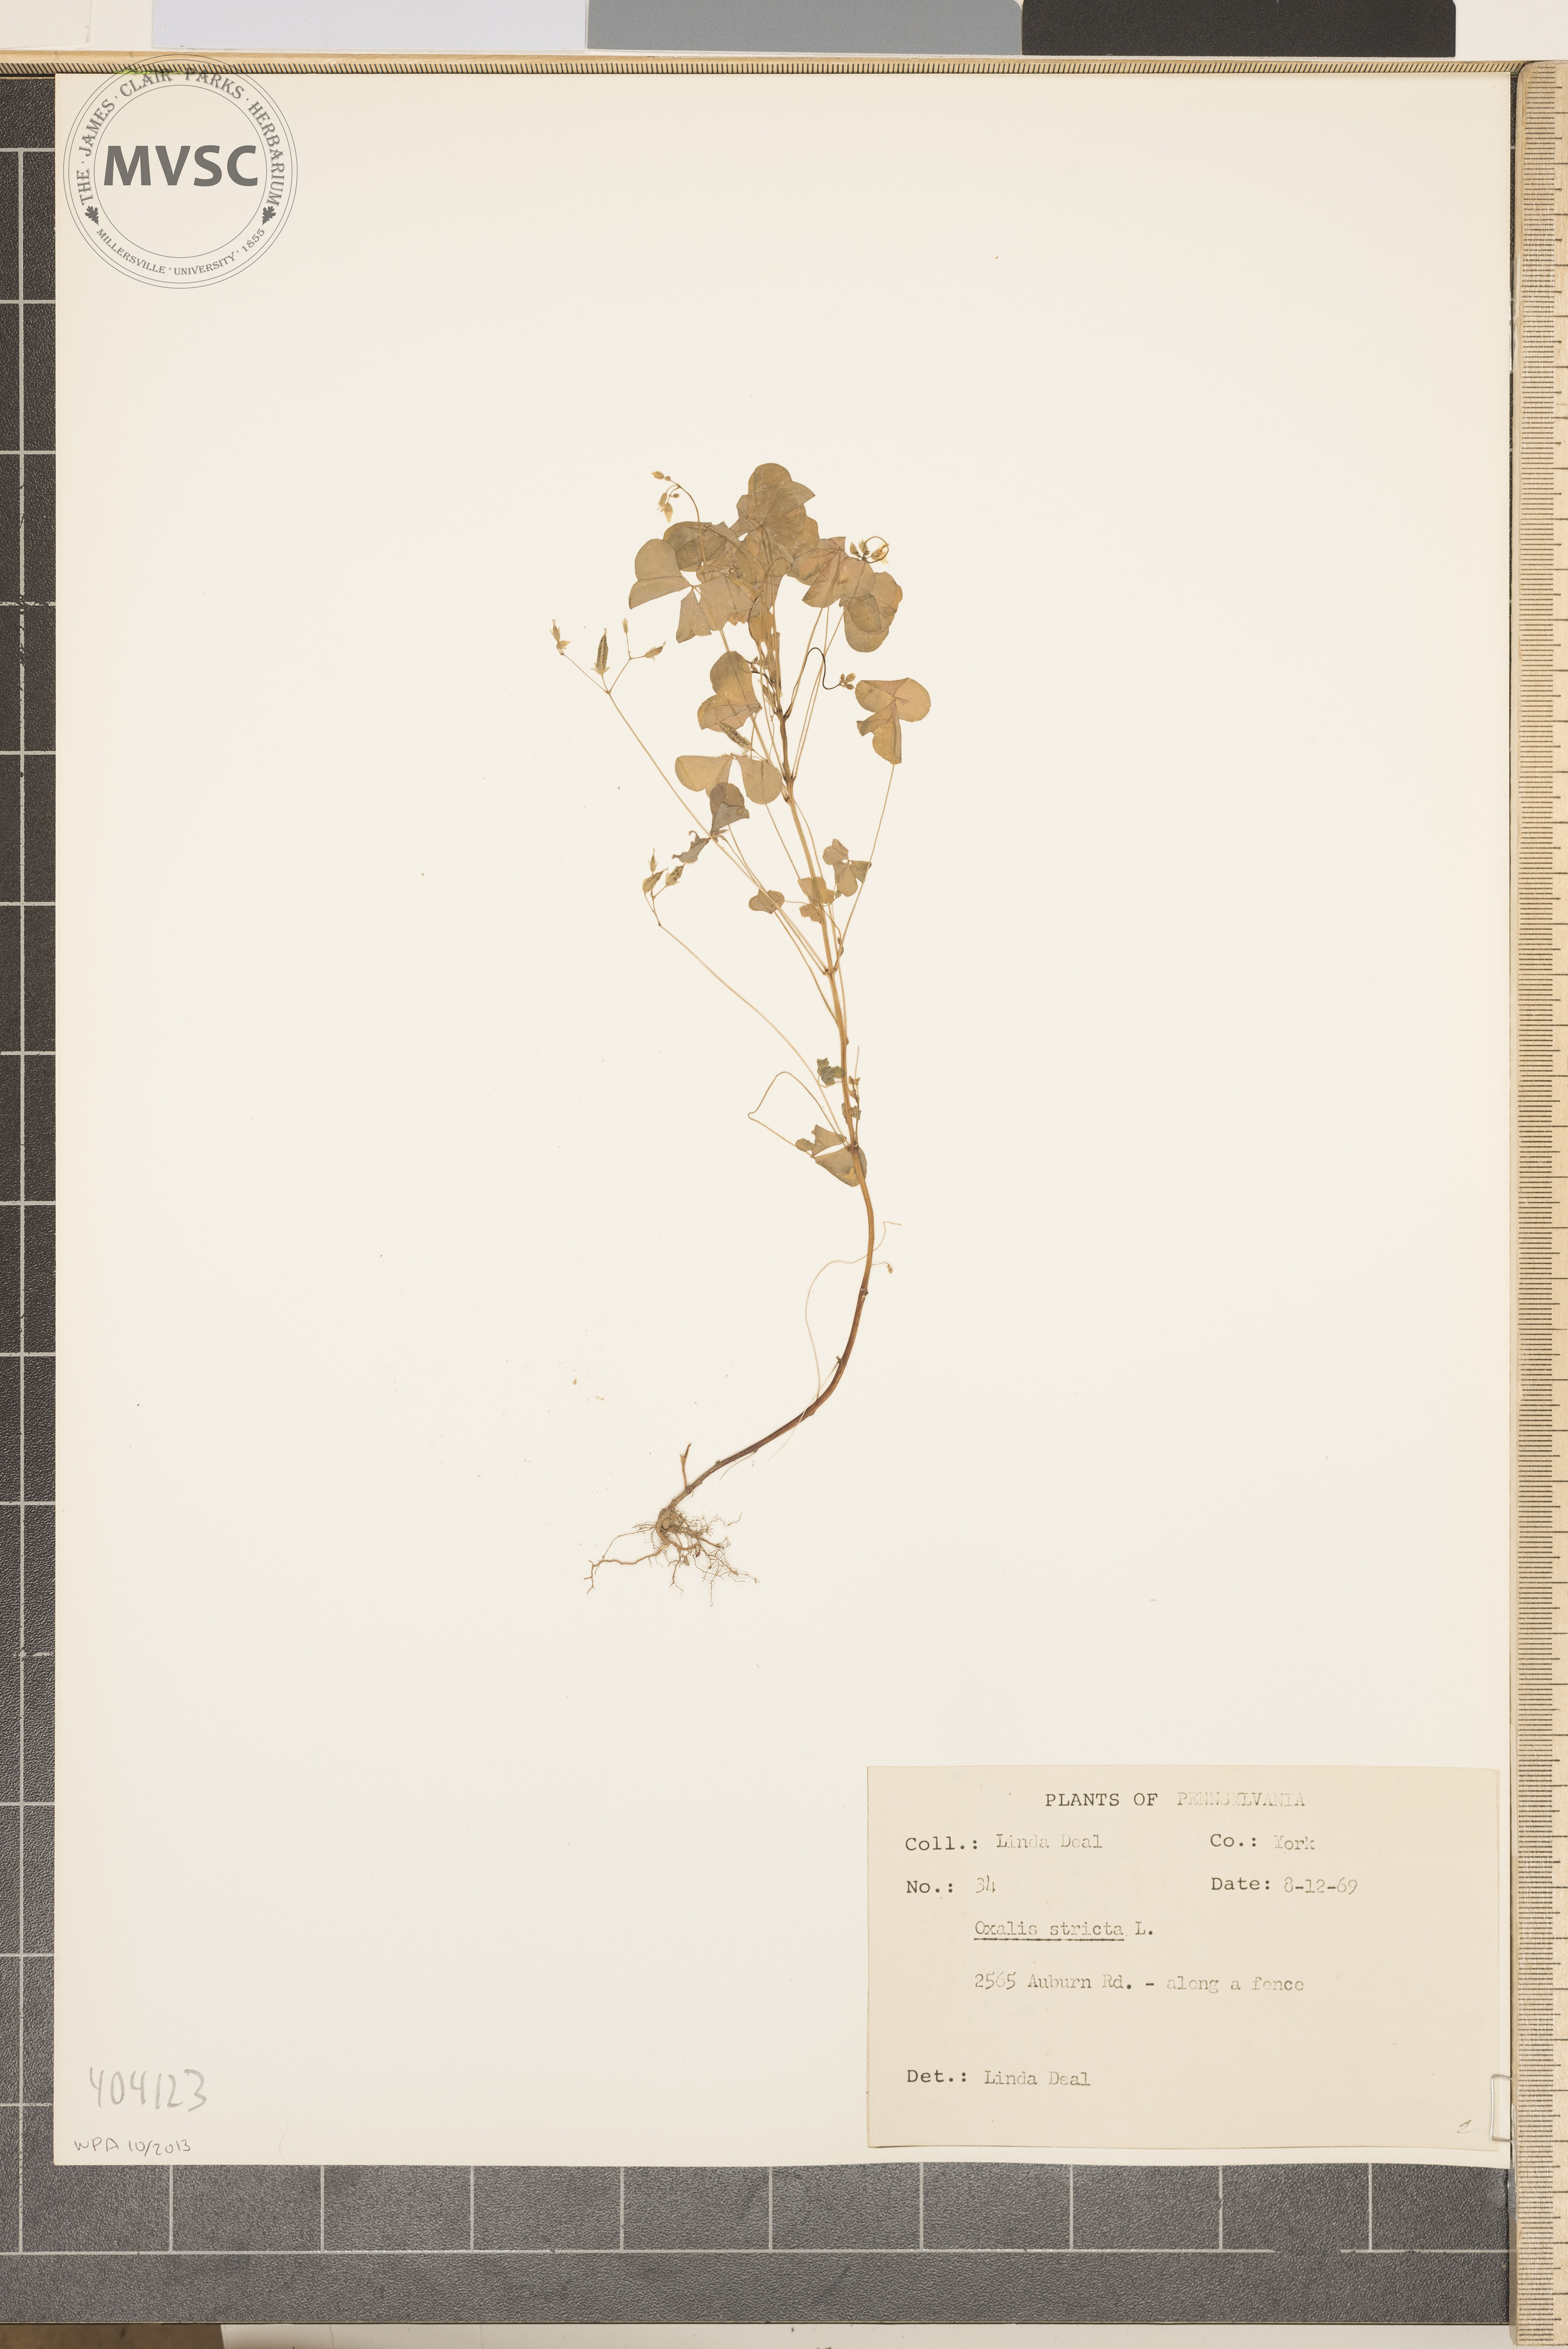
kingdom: Plantae
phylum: Tracheophyta
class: Magnoliopsida
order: Oxalidales
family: Oxalidaceae
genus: Oxalis
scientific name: Oxalis stricta
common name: Upright yellow-sorrel
